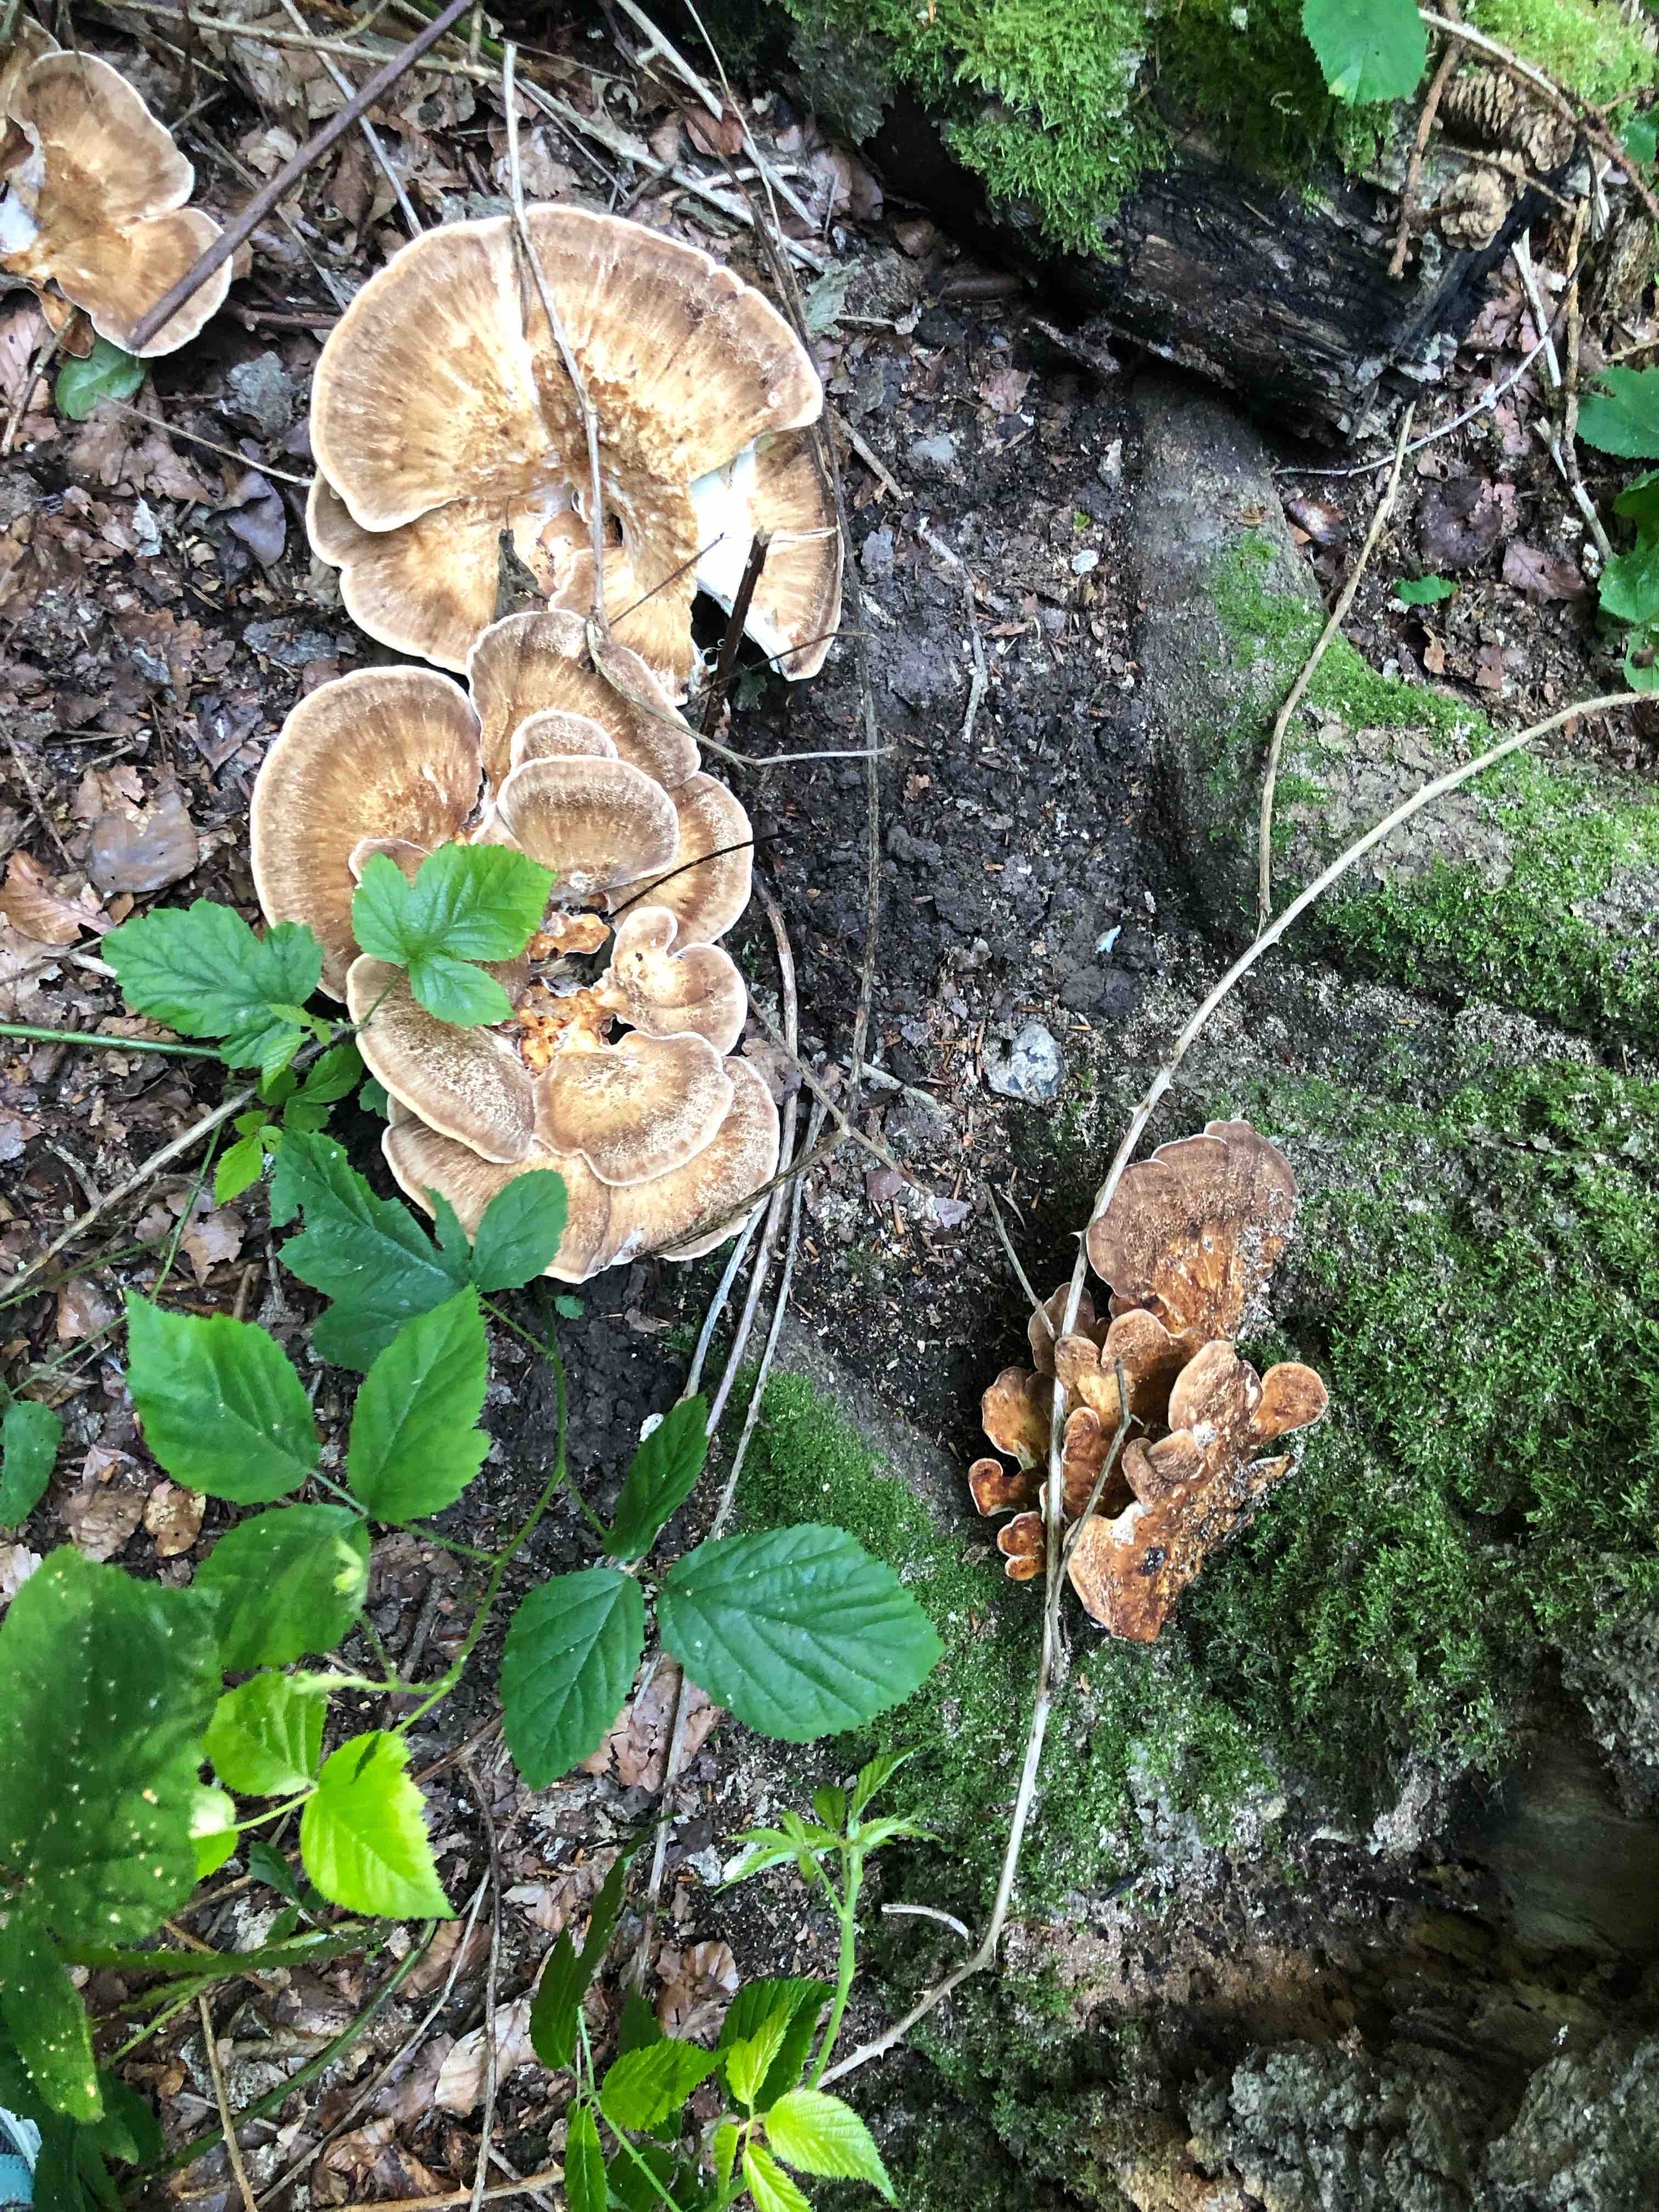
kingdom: Fungi
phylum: Basidiomycota
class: Agaricomycetes
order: Polyporales
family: Meripilaceae
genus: Meripilus
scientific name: Meripilus giganteus
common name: kæmpeporesvamp
